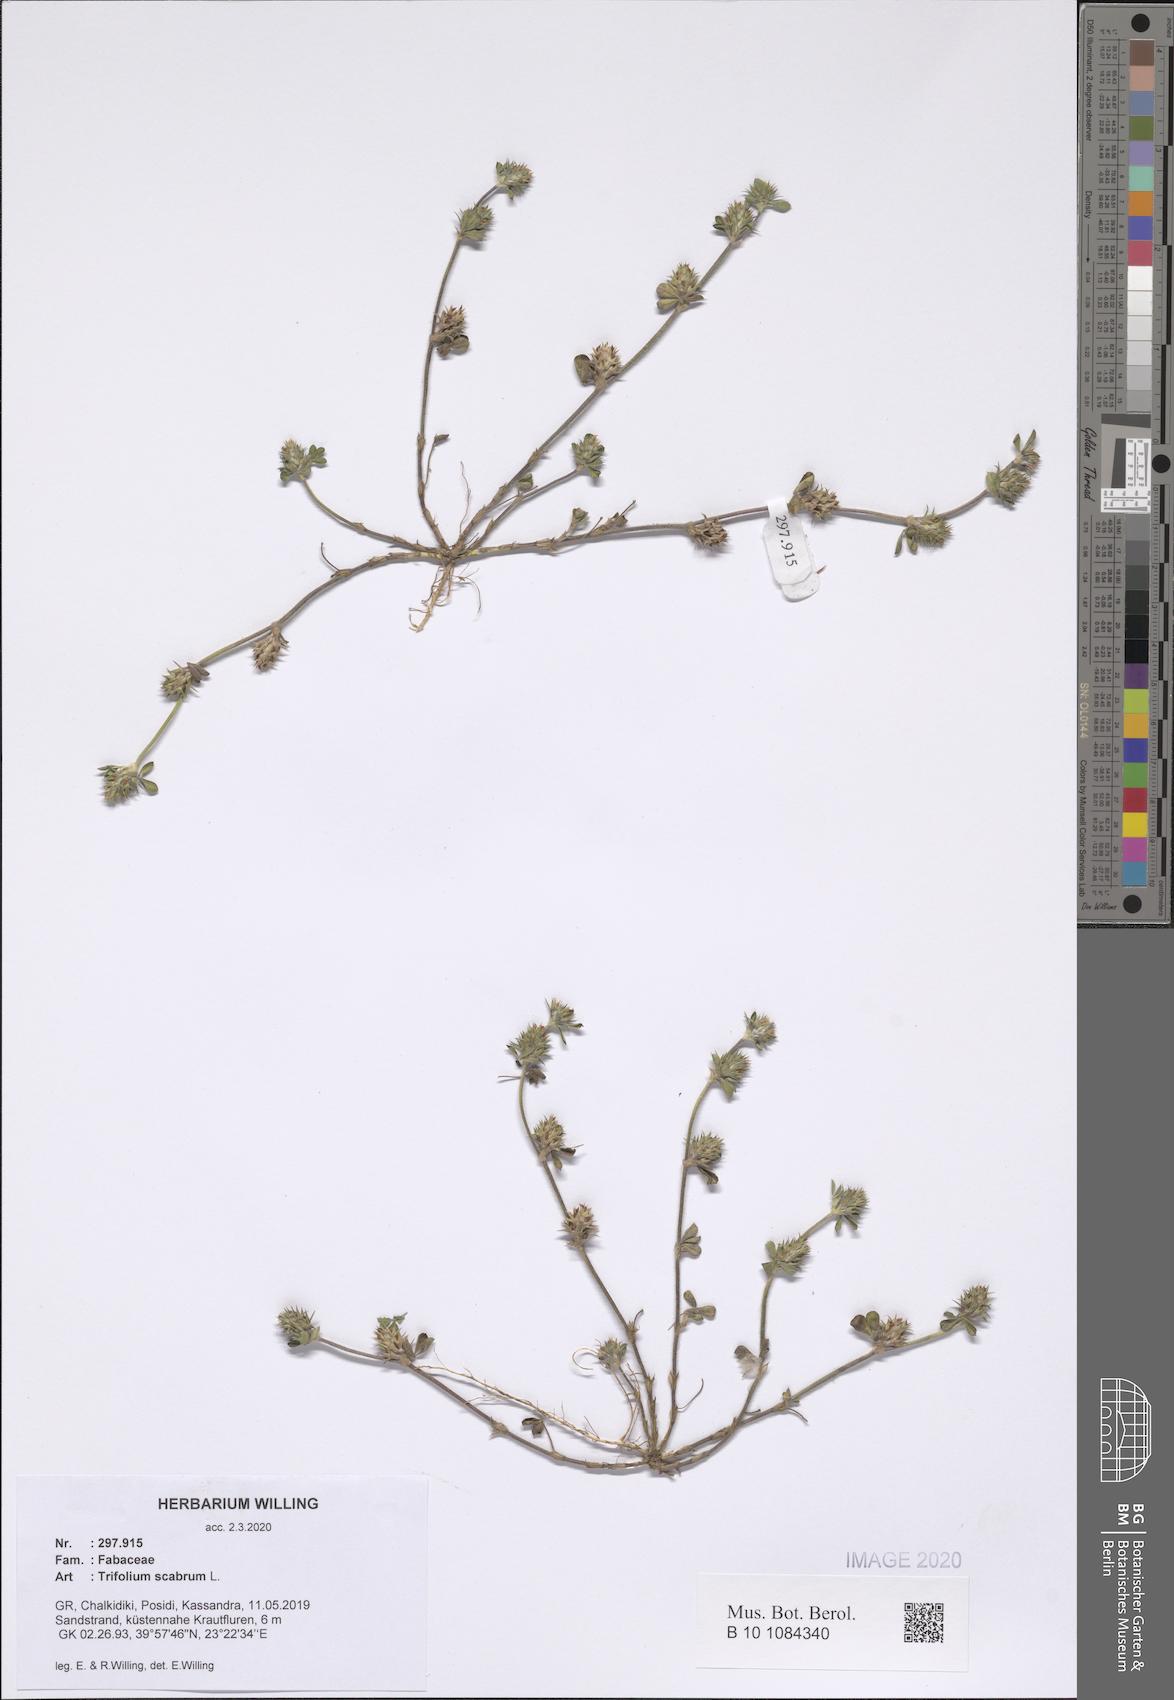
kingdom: Plantae
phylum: Tracheophyta
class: Magnoliopsida
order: Fabales
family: Fabaceae
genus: Trifolium
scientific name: Trifolium scabrum
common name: Rough clover
